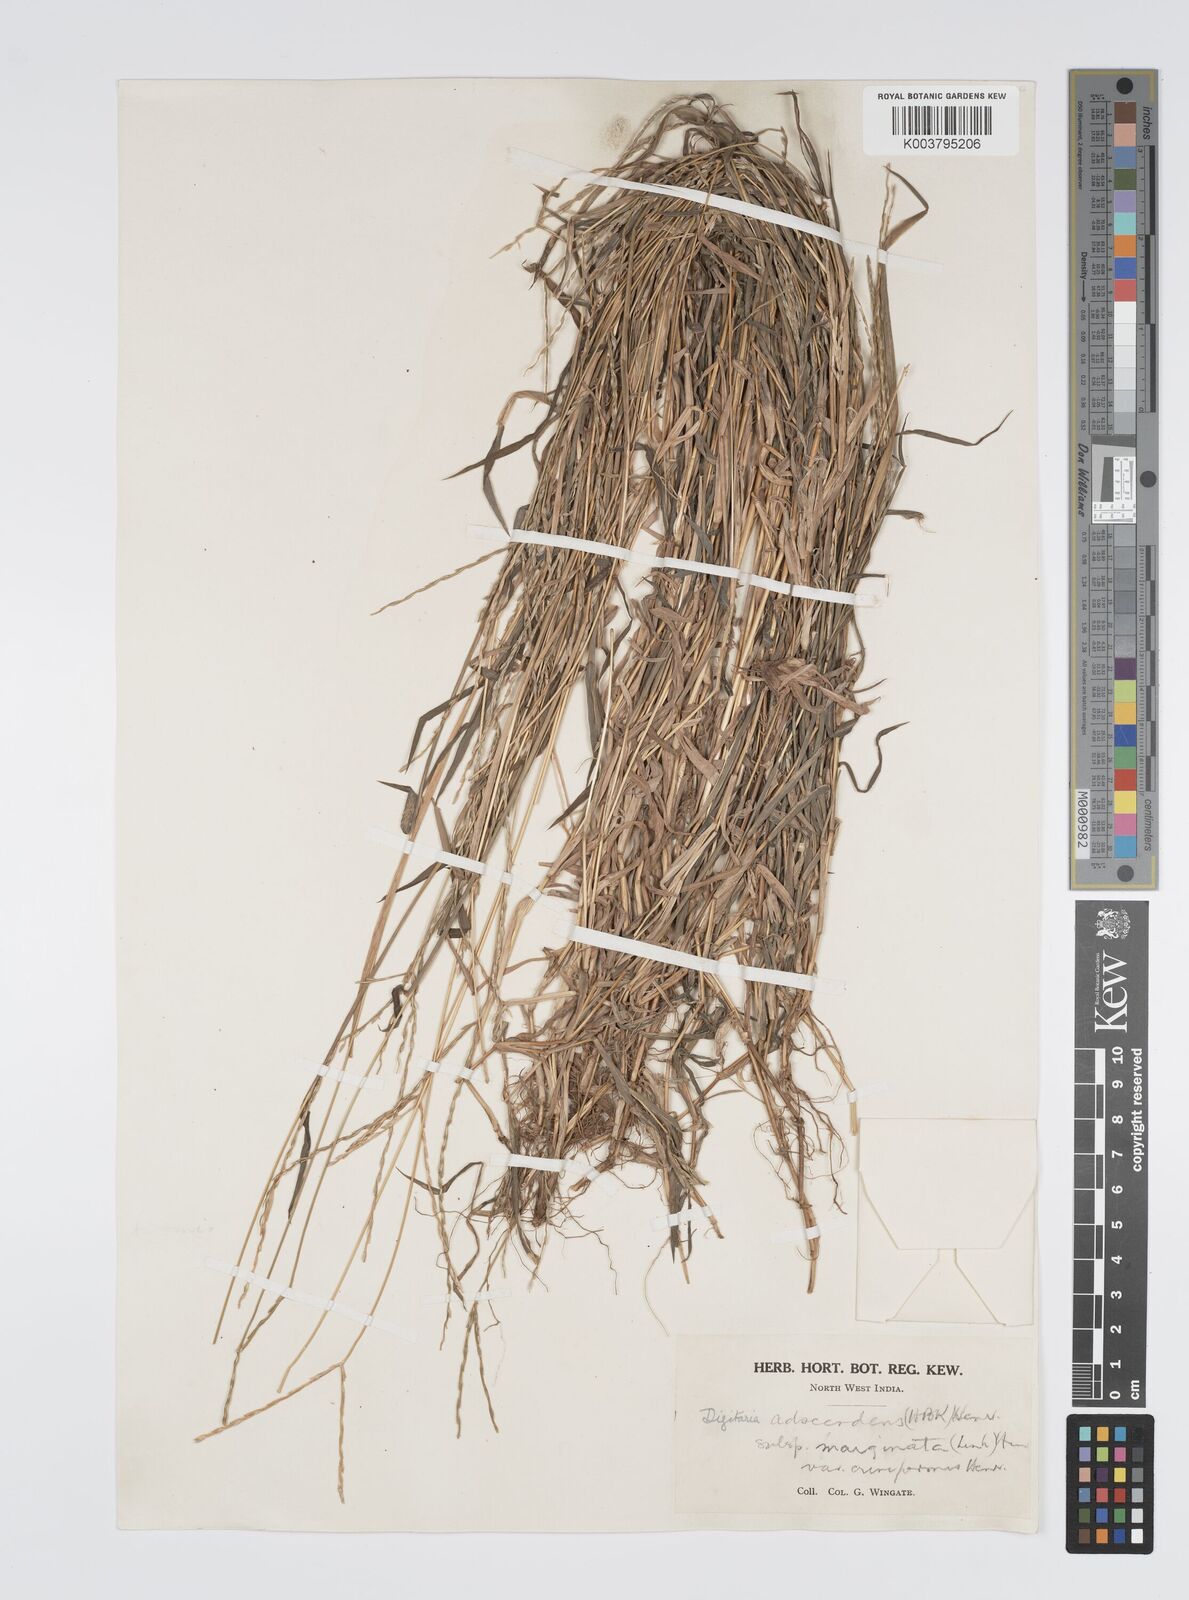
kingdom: Plantae
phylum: Tracheophyta
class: Liliopsida
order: Poales
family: Poaceae
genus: Digitaria
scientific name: Digitaria ciliaris
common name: Tropical finger-grass
